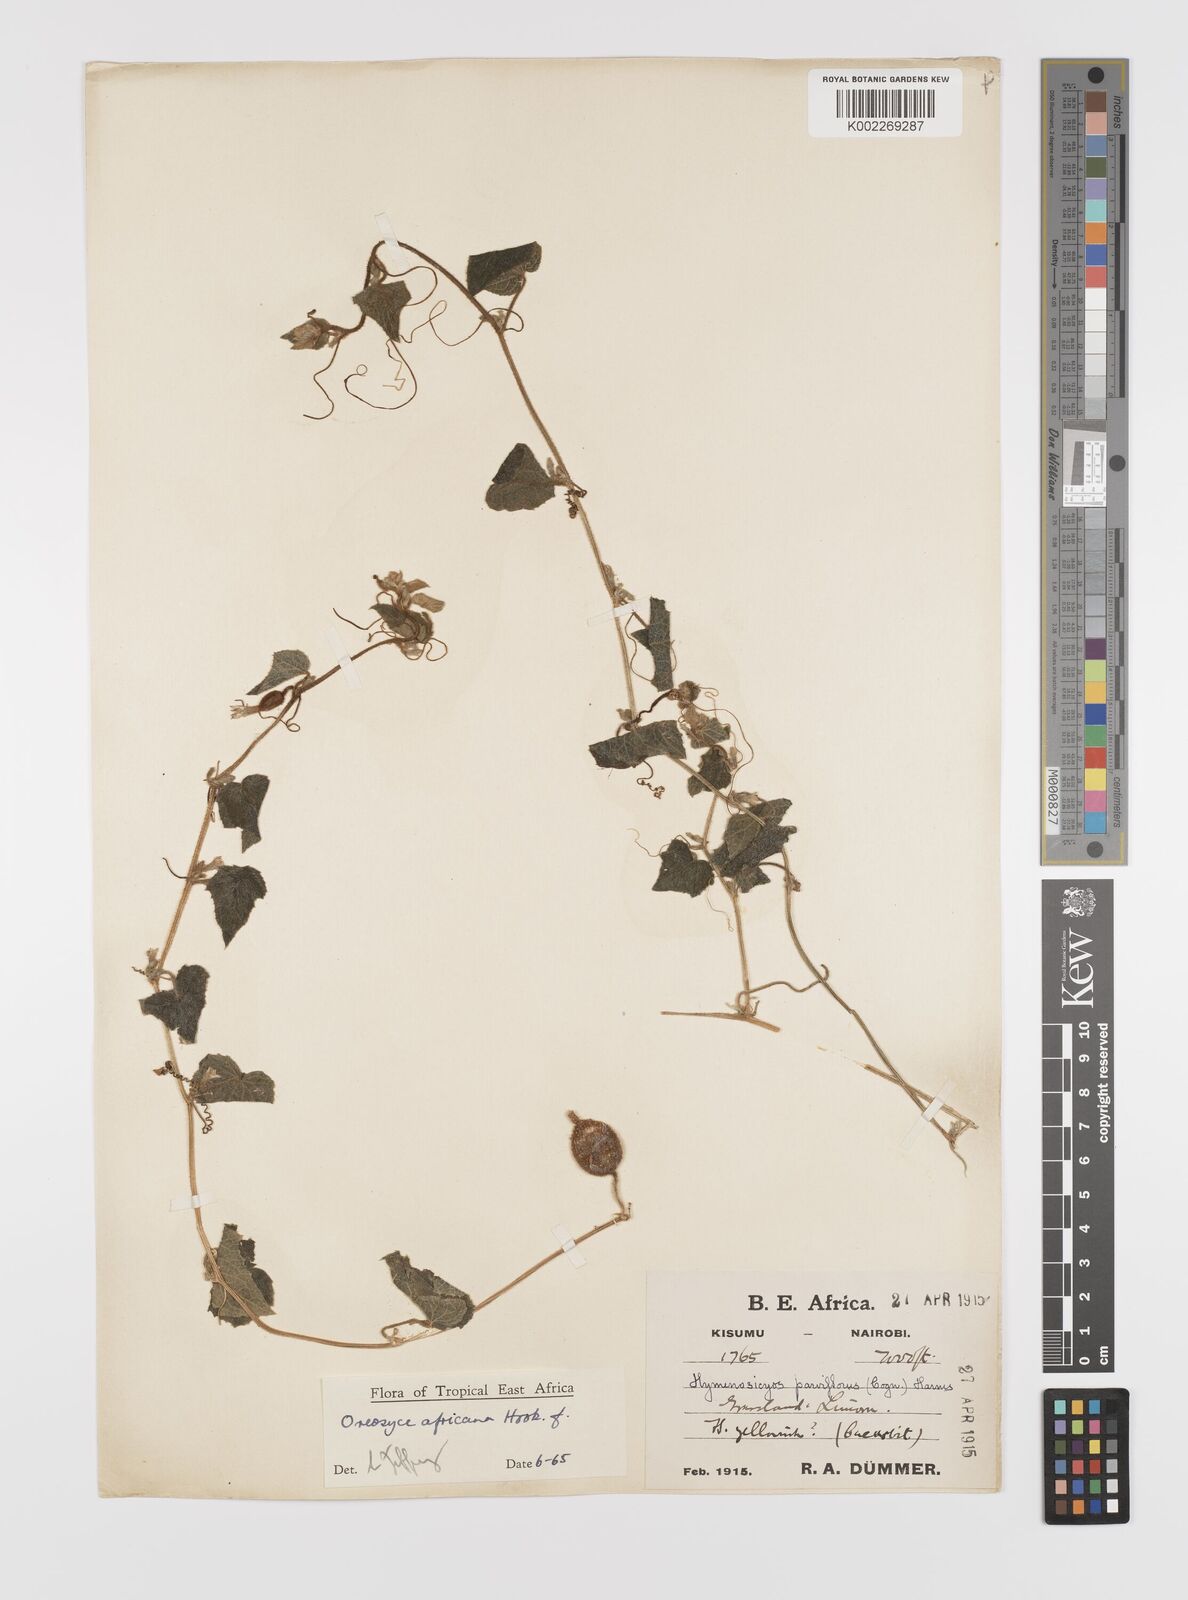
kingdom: Plantae
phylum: Tracheophyta
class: Magnoliopsida
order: Cucurbitales
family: Cucurbitaceae
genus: Cucumis
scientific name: Cucumis oreosyce
